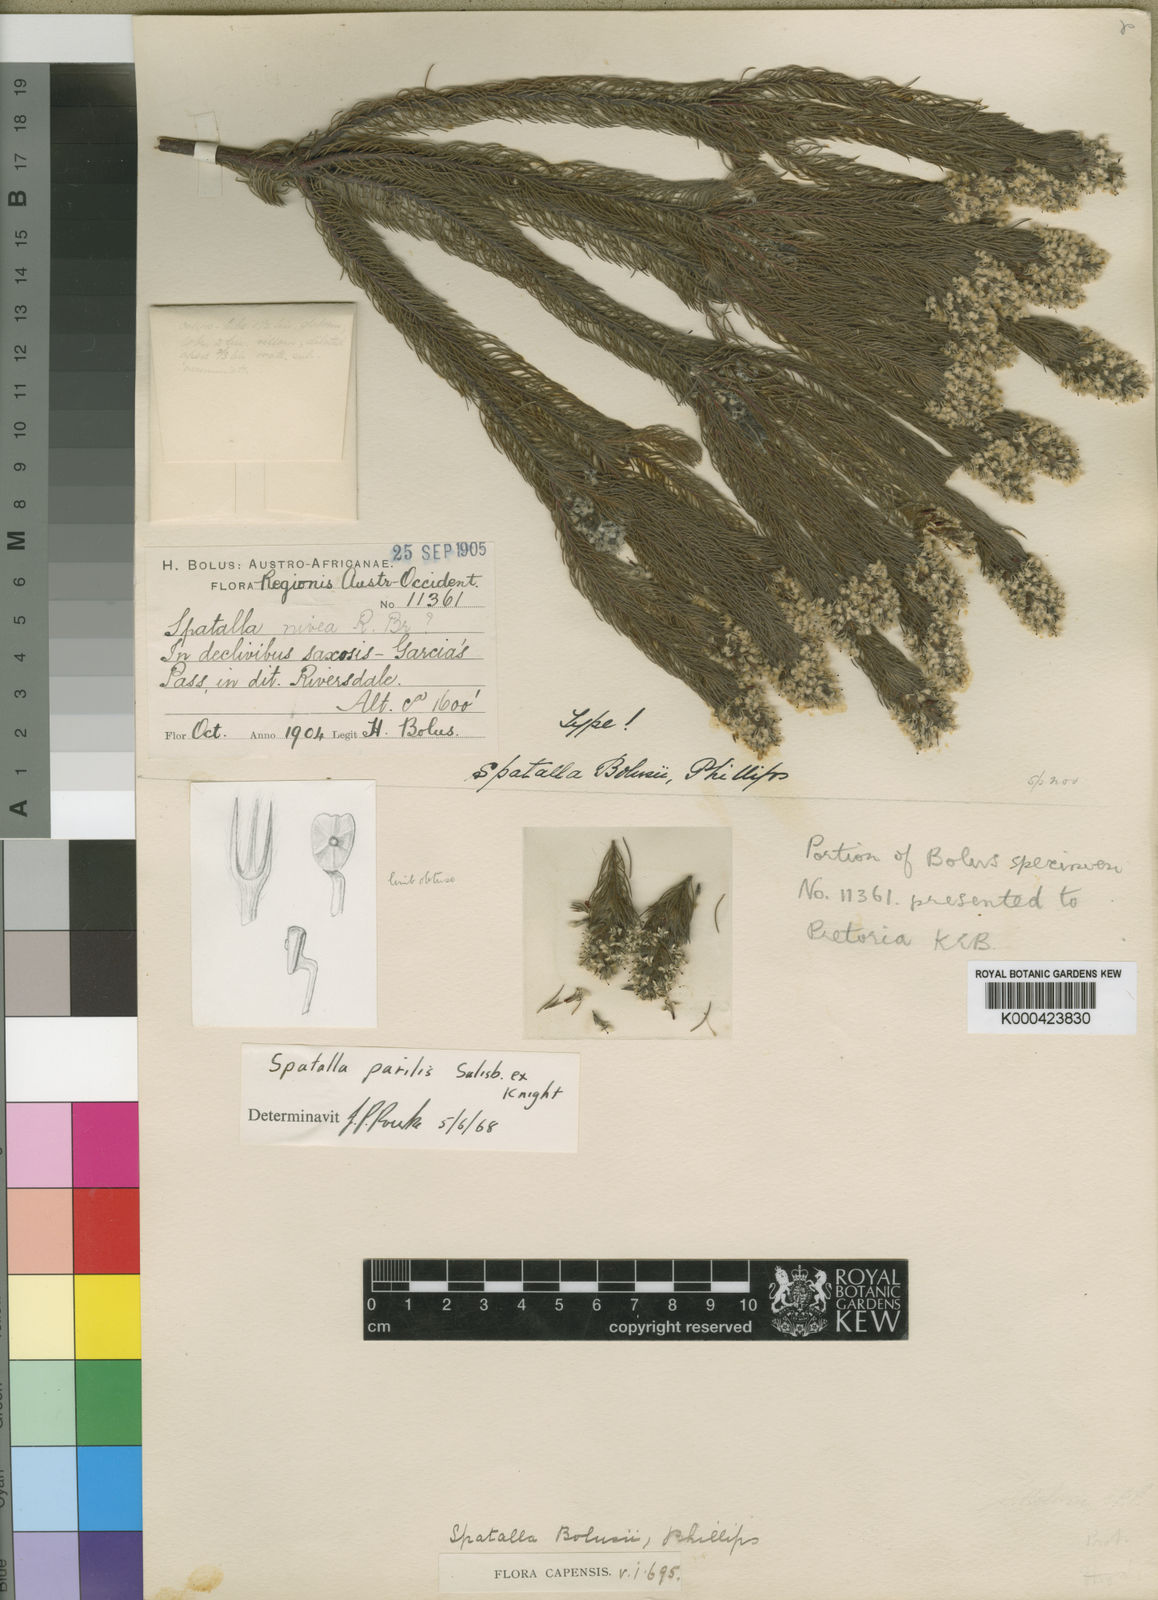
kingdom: Plantae
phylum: Tracheophyta
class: Magnoliopsida
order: Proteales
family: Proteaceae
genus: Spatalla
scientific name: Spatalla parilis
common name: Spike spoon
